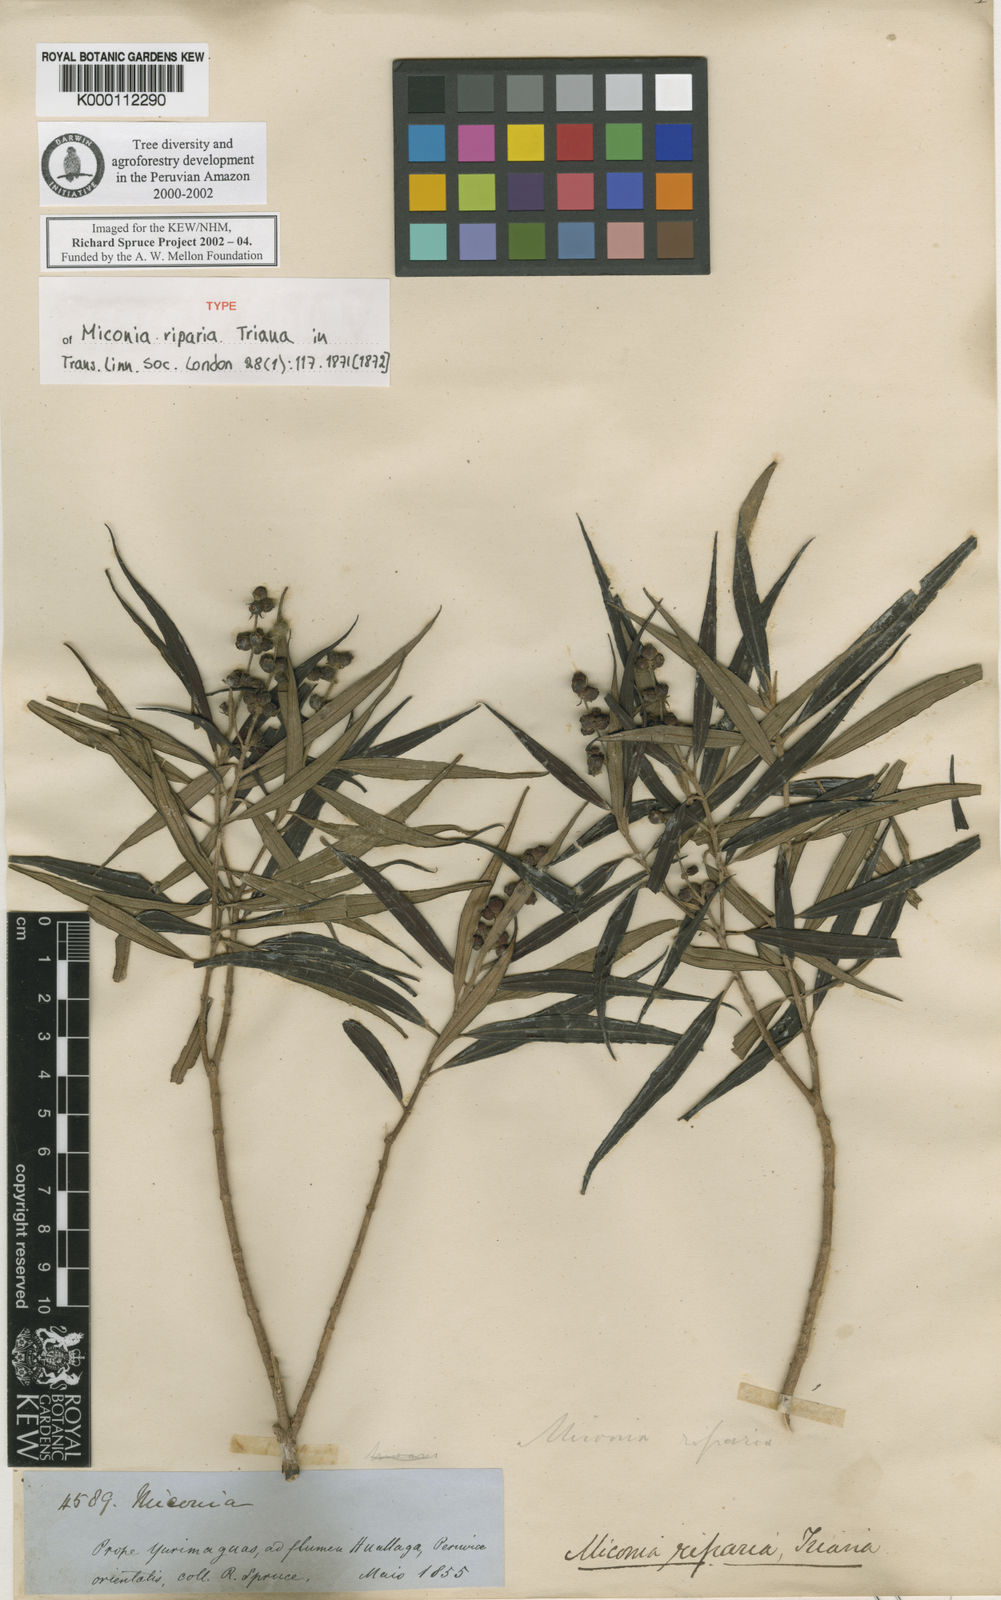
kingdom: Plantae
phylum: Tracheophyta
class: Magnoliopsida
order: Myrtales
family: Melastomataceae
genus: Miconia
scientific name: Miconia riparia
